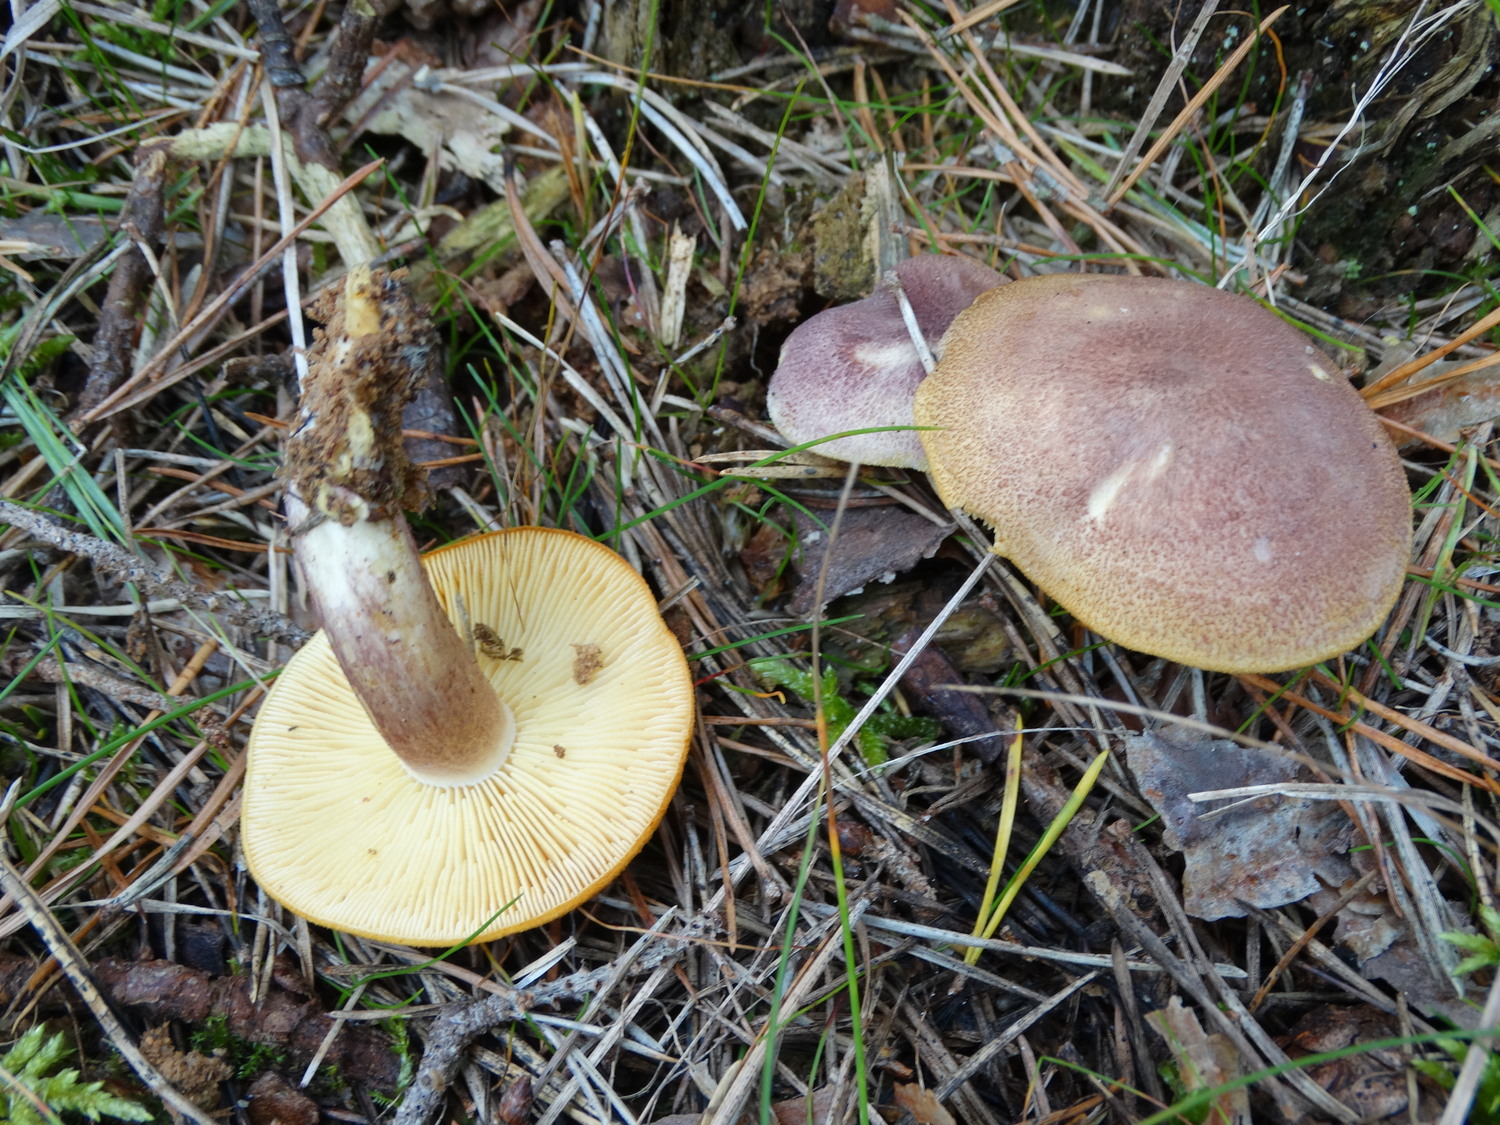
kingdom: Fungi
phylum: Basidiomycota
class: Agaricomycetes
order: Agaricales
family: Tricholomataceae
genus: Tricholomopsis
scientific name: Tricholomopsis rutilans
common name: purpur-væbnerhat
